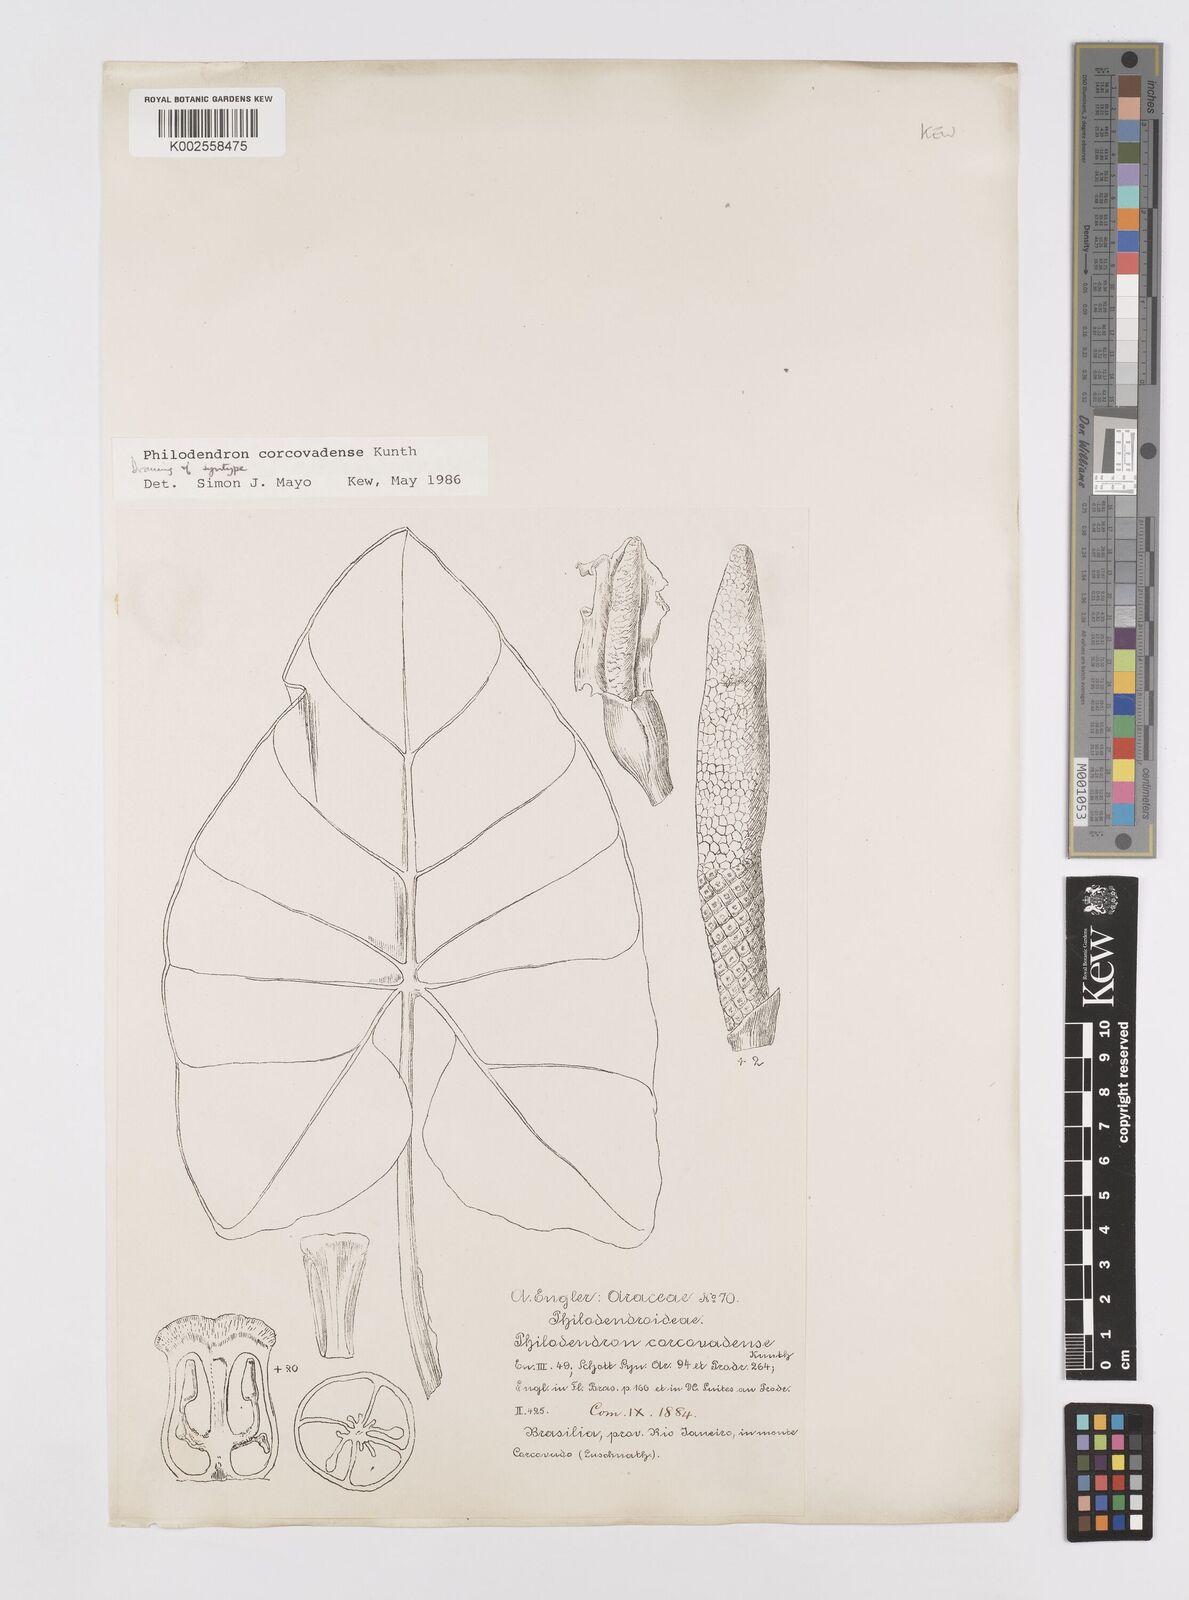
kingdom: Plantae
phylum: Tracheophyta
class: Liliopsida
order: Alismatales
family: Araceae
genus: Thaumatophyllum
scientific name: Thaumatophyllum corcovadense
